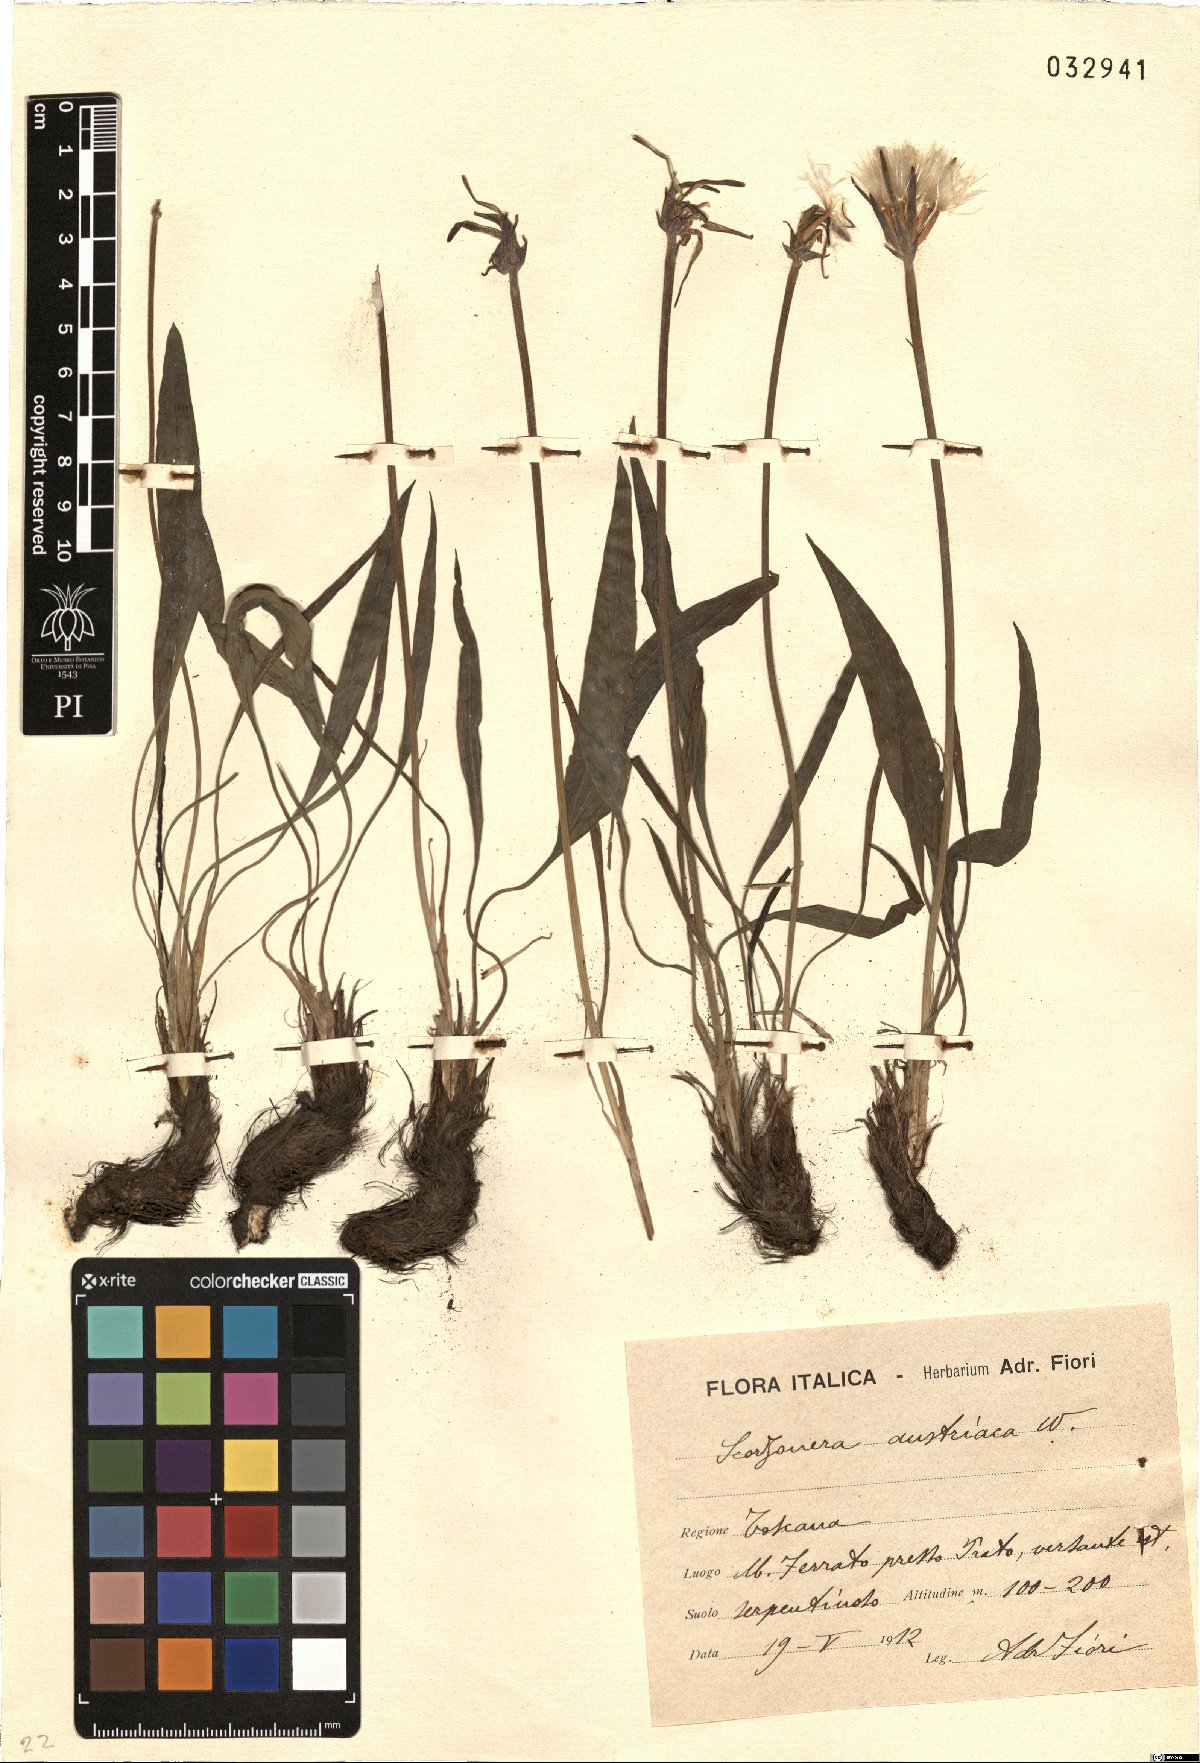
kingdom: Plantae
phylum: Tracheophyta
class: Magnoliopsida
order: Asterales
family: Asteraceae
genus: Takhtajaniantha
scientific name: Takhtajaniantha austriaca
